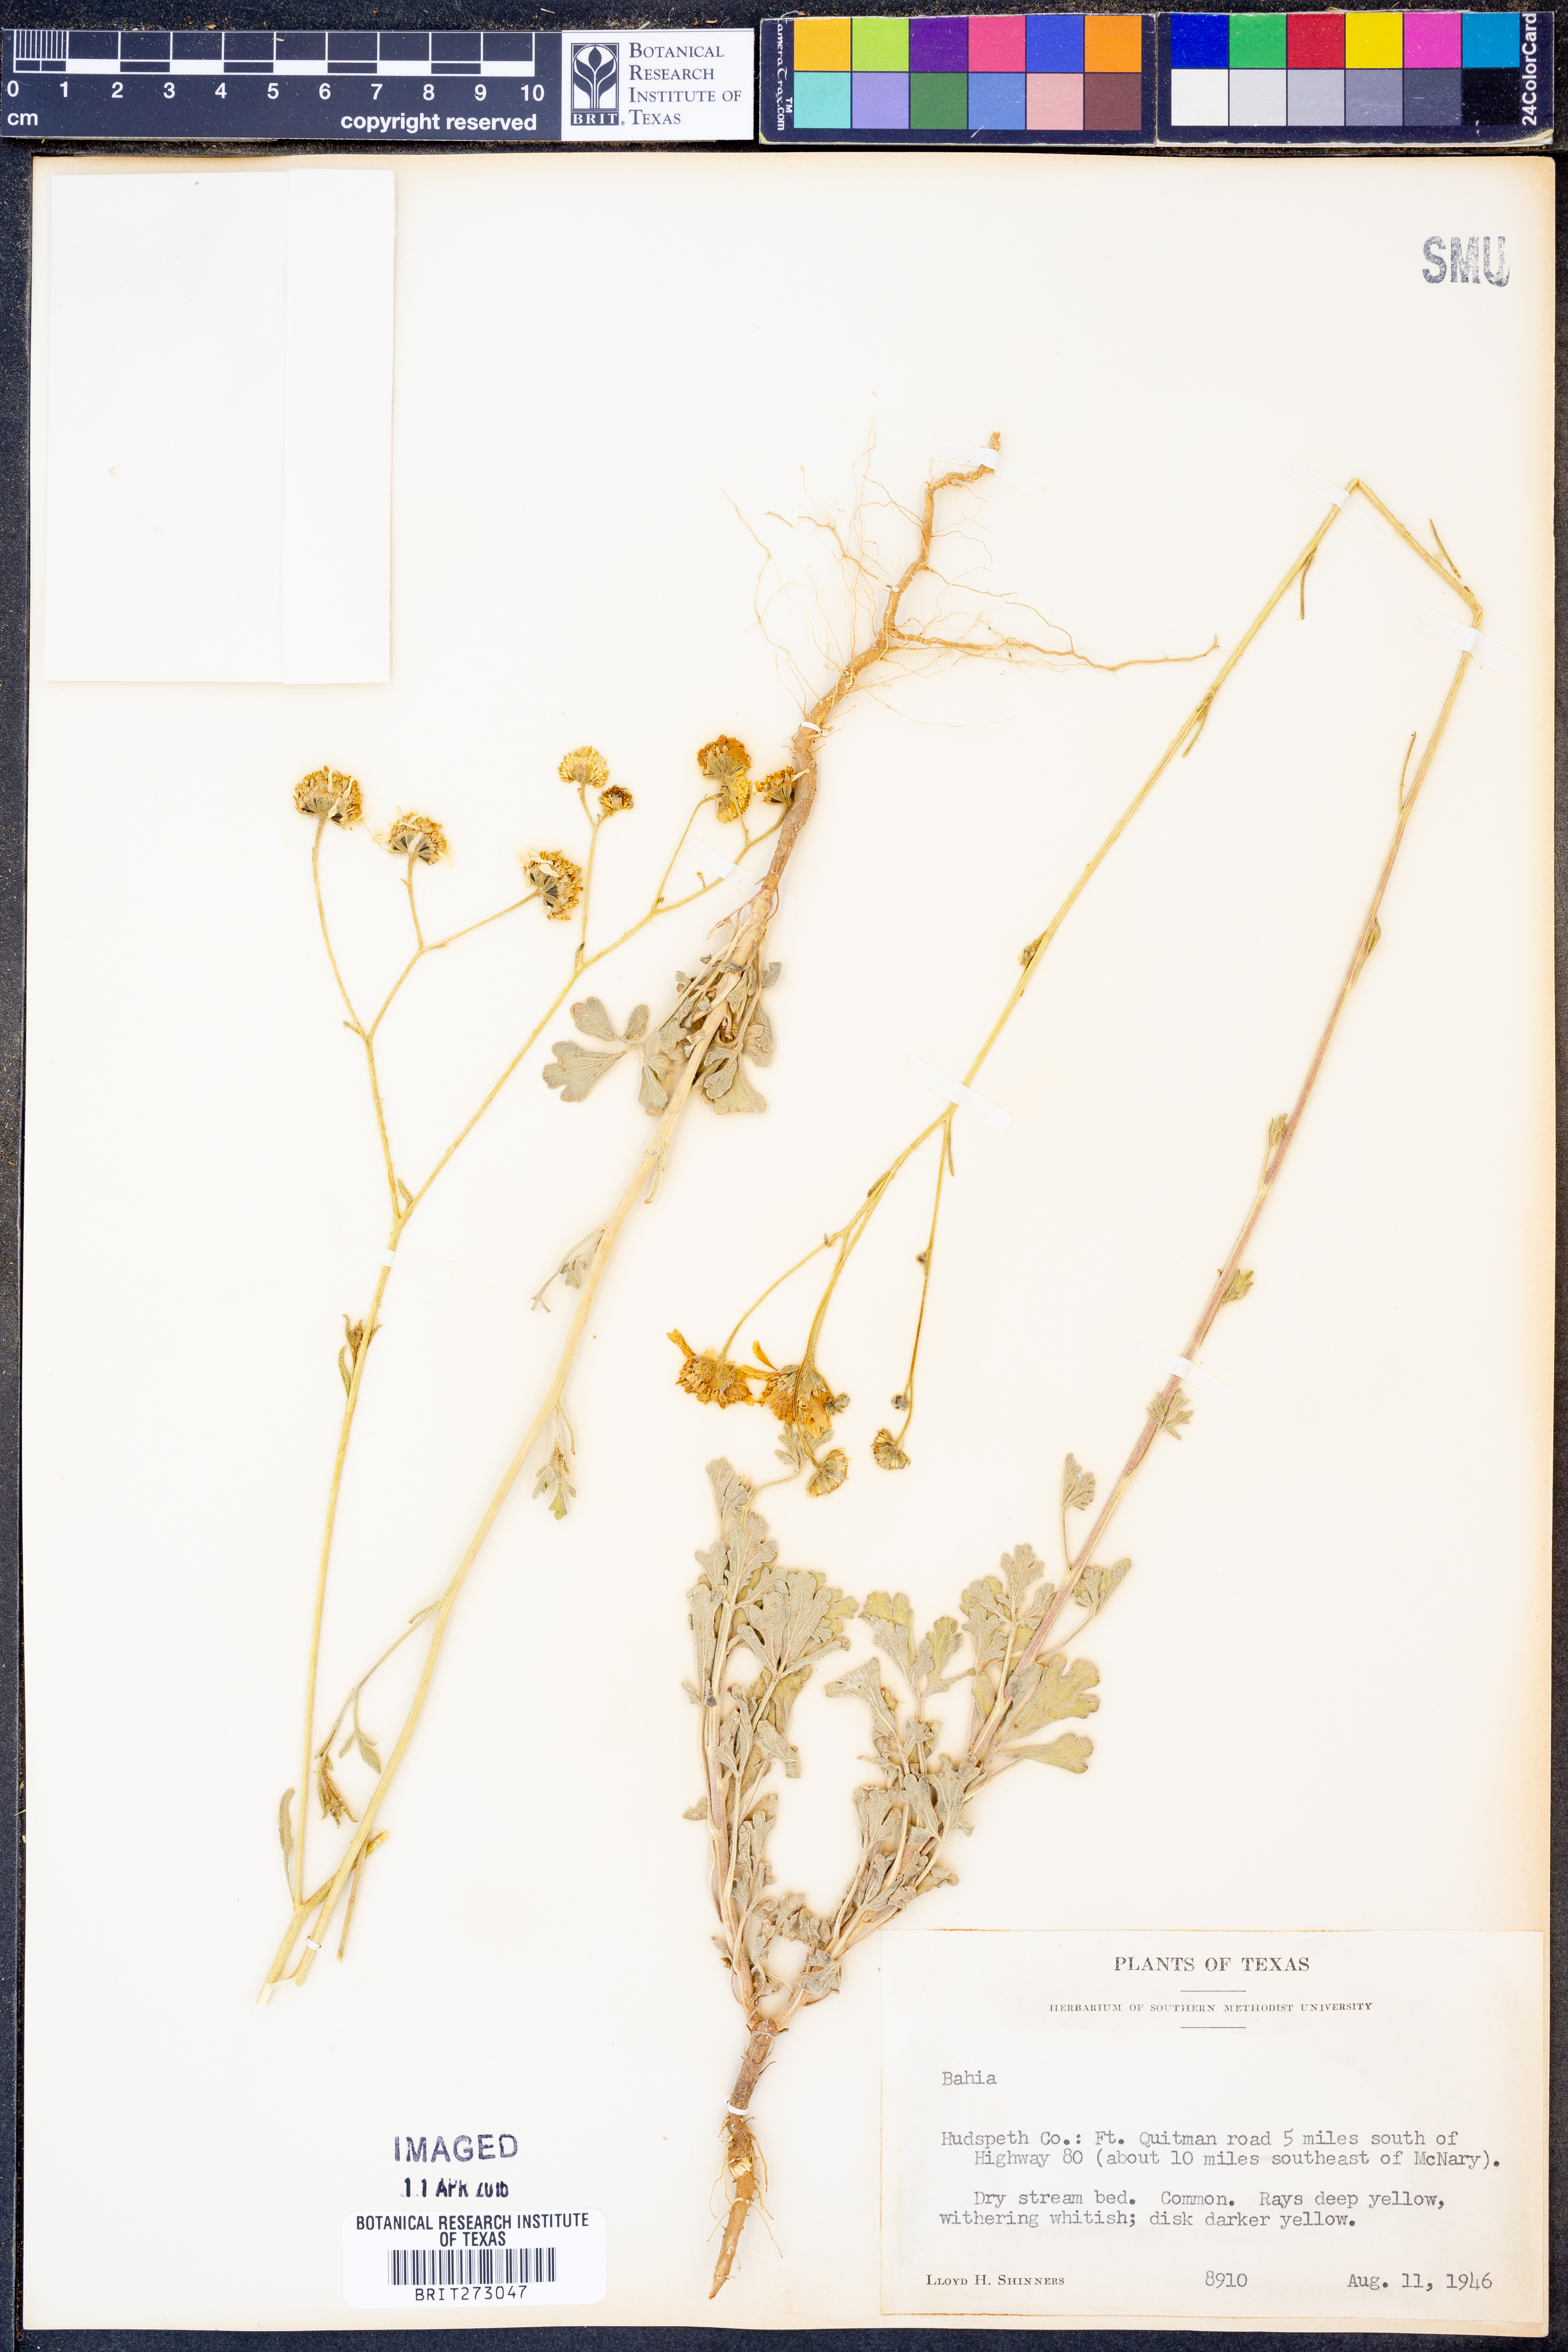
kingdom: Plantae
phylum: Tracheophyta
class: Magnoliopsida
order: Asterales
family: Asteraceae
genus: Bahia
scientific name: Bahia
